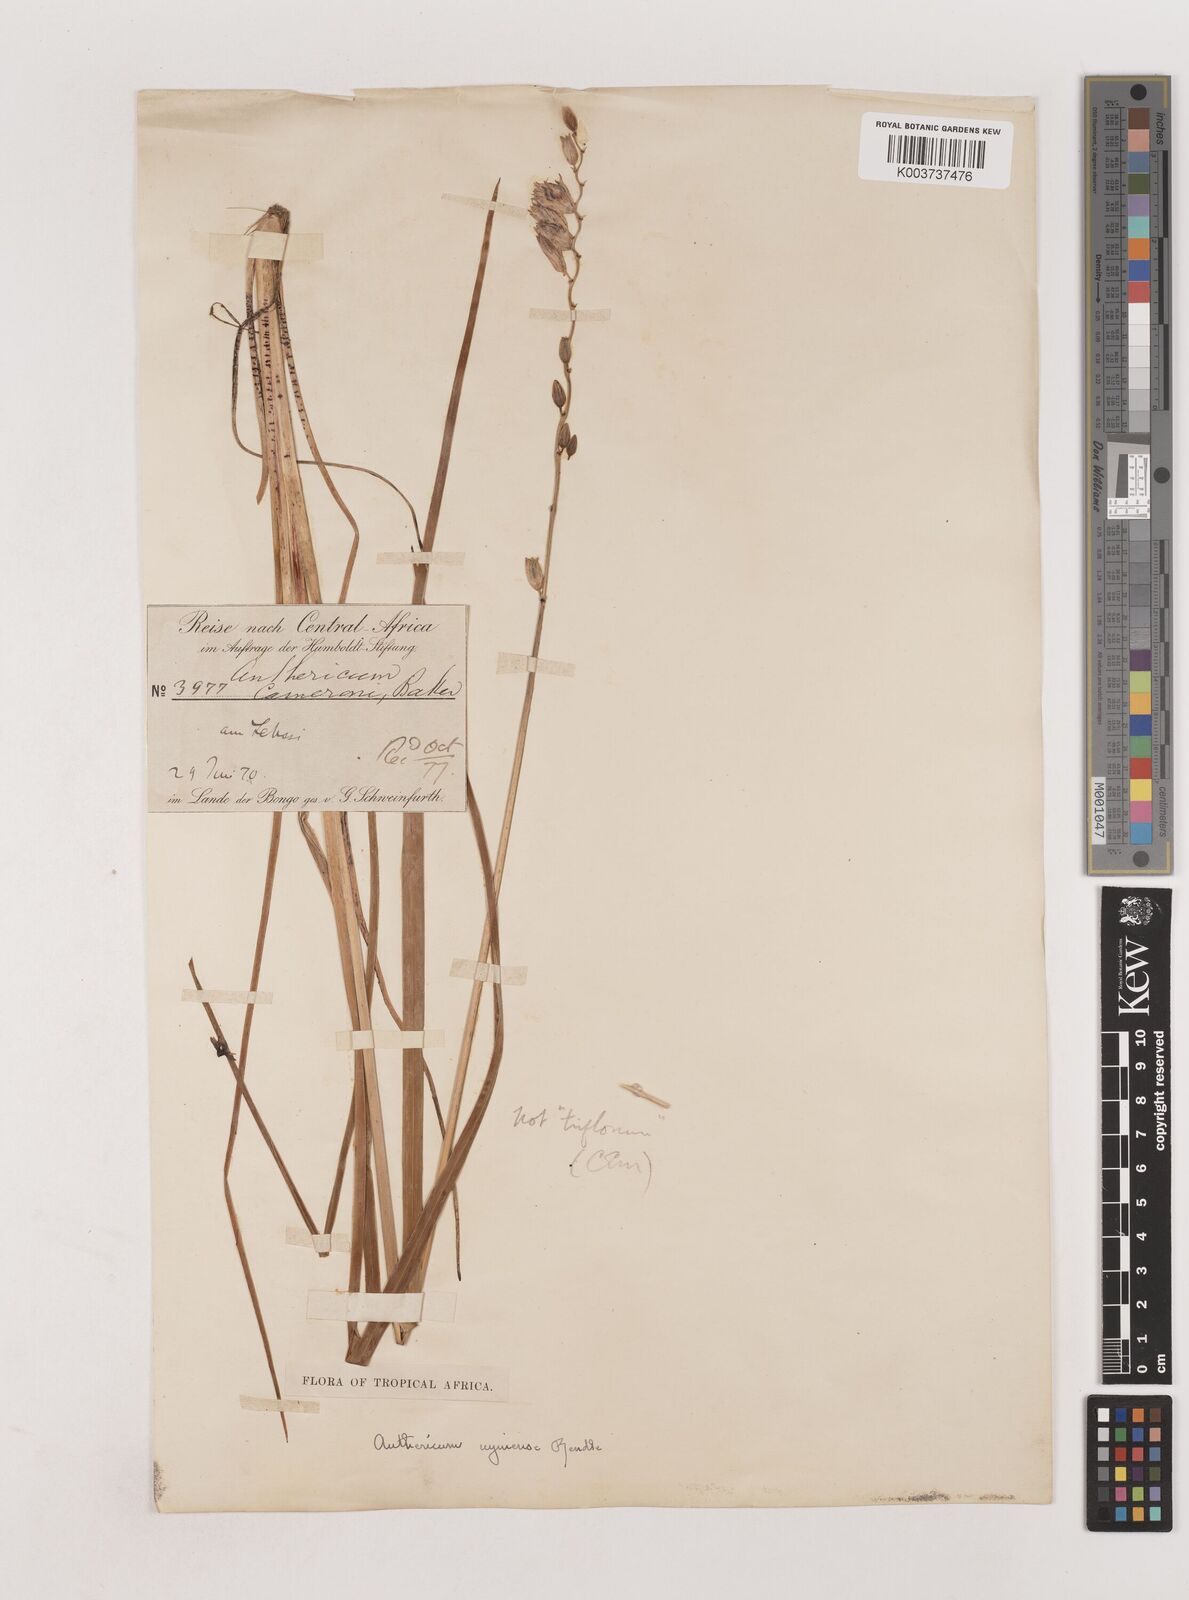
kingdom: Plantae
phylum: Tracheophyta
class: Liliopsida
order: Asparagales
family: Asparagaceae
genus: Chlorophytum
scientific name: Chlorophytum cameronii
